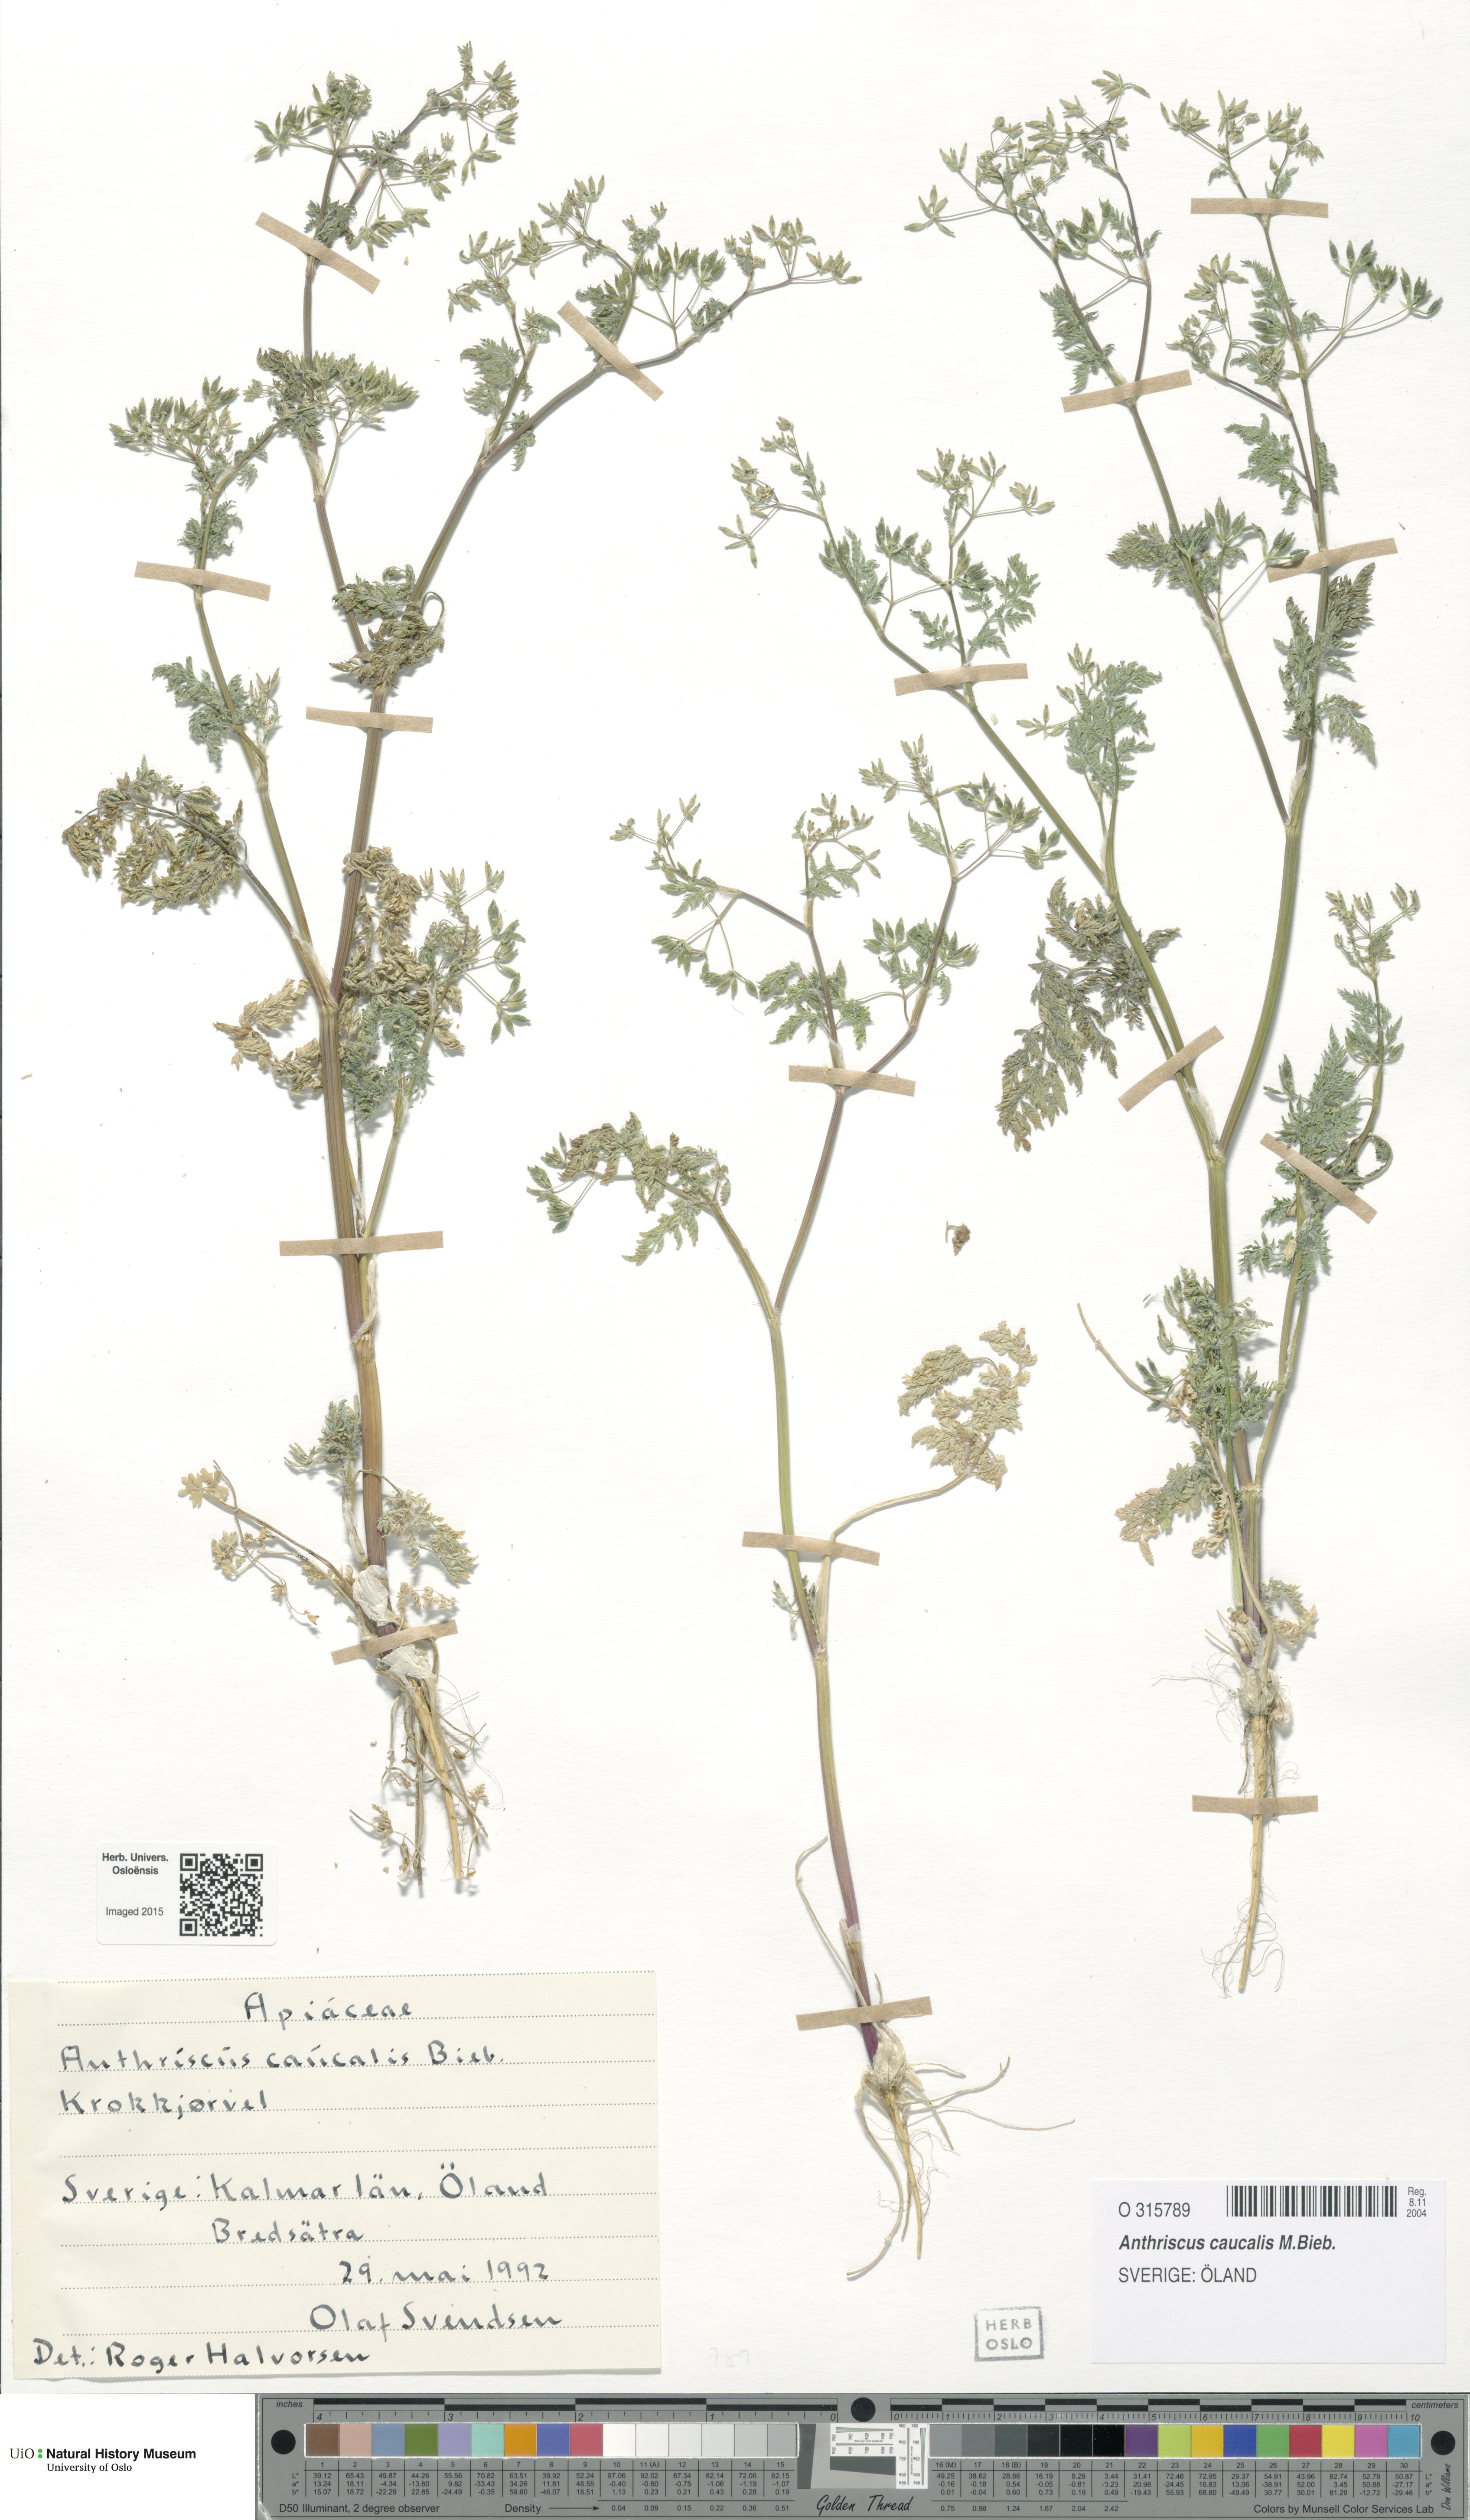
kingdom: Plantae
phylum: Tracheophyta
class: Magnoliopsida
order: Apiales
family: Apiaceae
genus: Anthriscus
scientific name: Anthriscus caucalis
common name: Bur chervil
